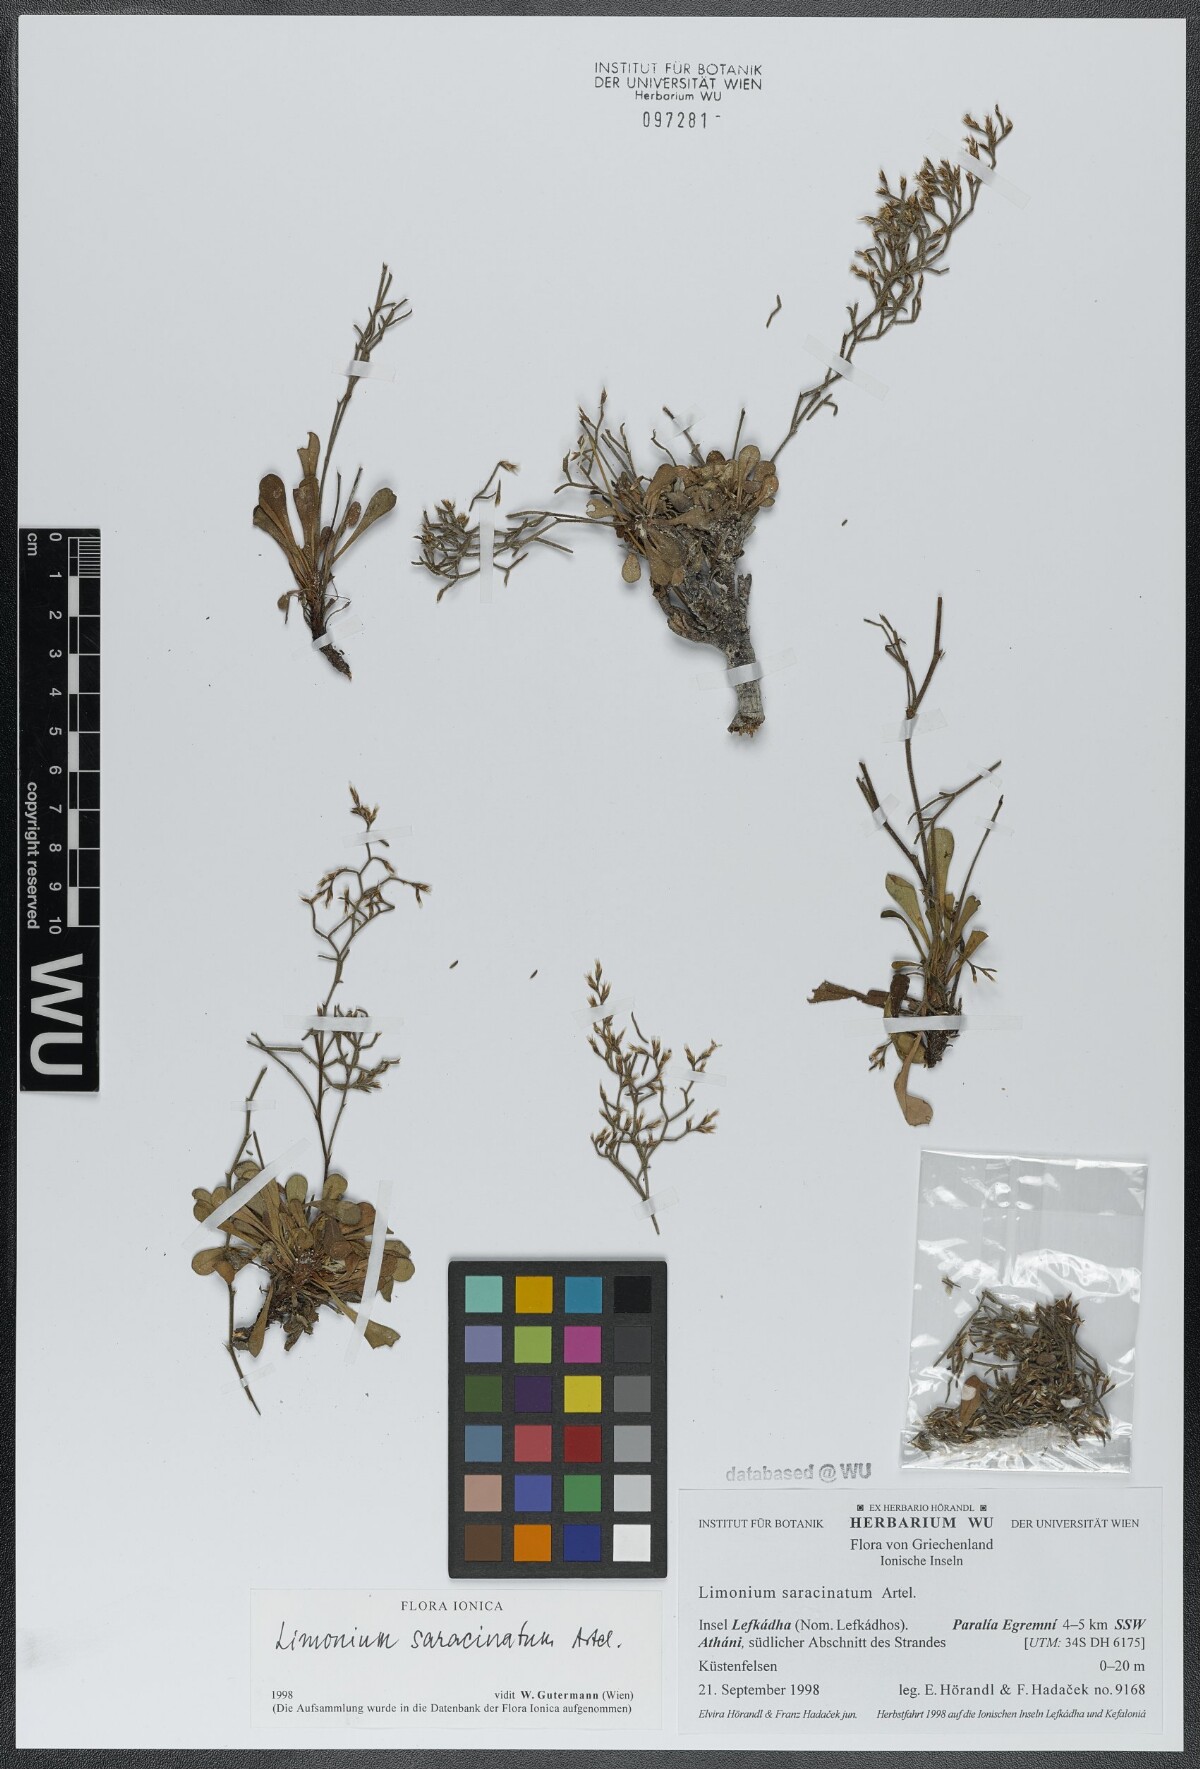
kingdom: Plantae
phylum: Tracheophyta
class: Magnoliopsida
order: Caryophyllales
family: Plumbaginaceae
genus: Limonium
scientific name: Limonium saracinatum
